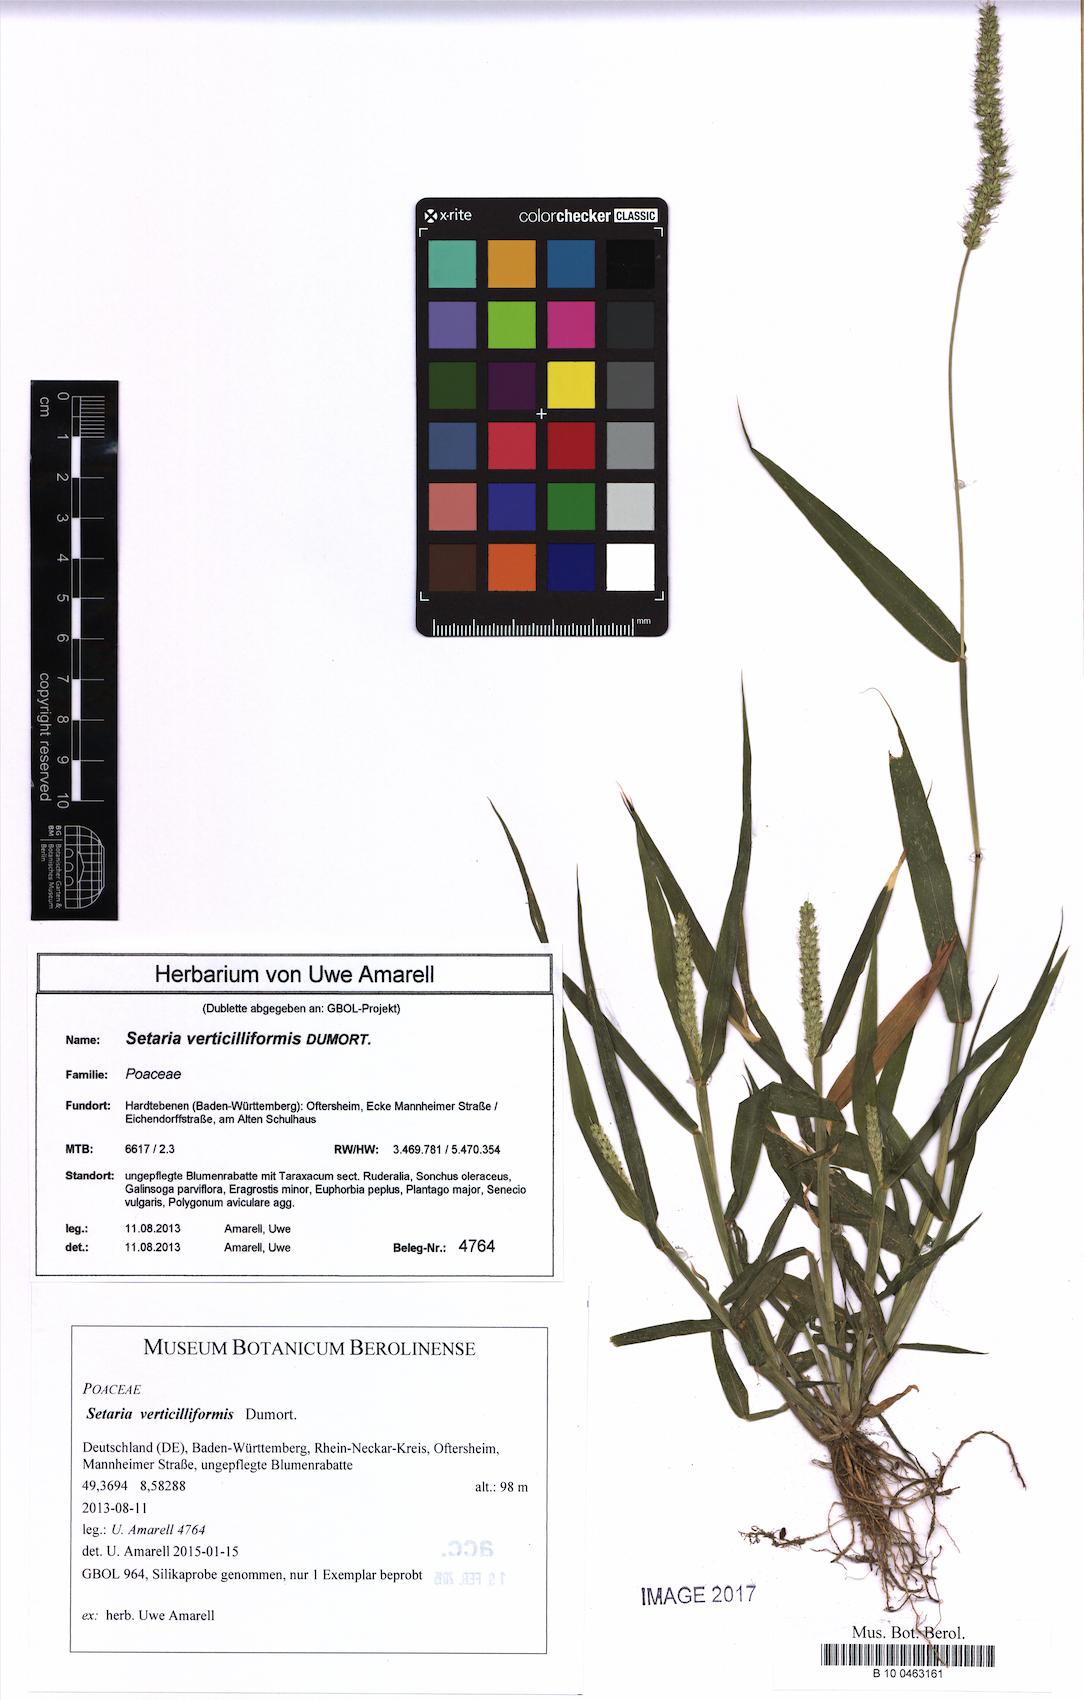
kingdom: Plantae
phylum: Tracheophyta
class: Liliopsida
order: Poales
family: Poaceae
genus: Setaria
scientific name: Setaria verticillata
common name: Hooked bristlegrass
